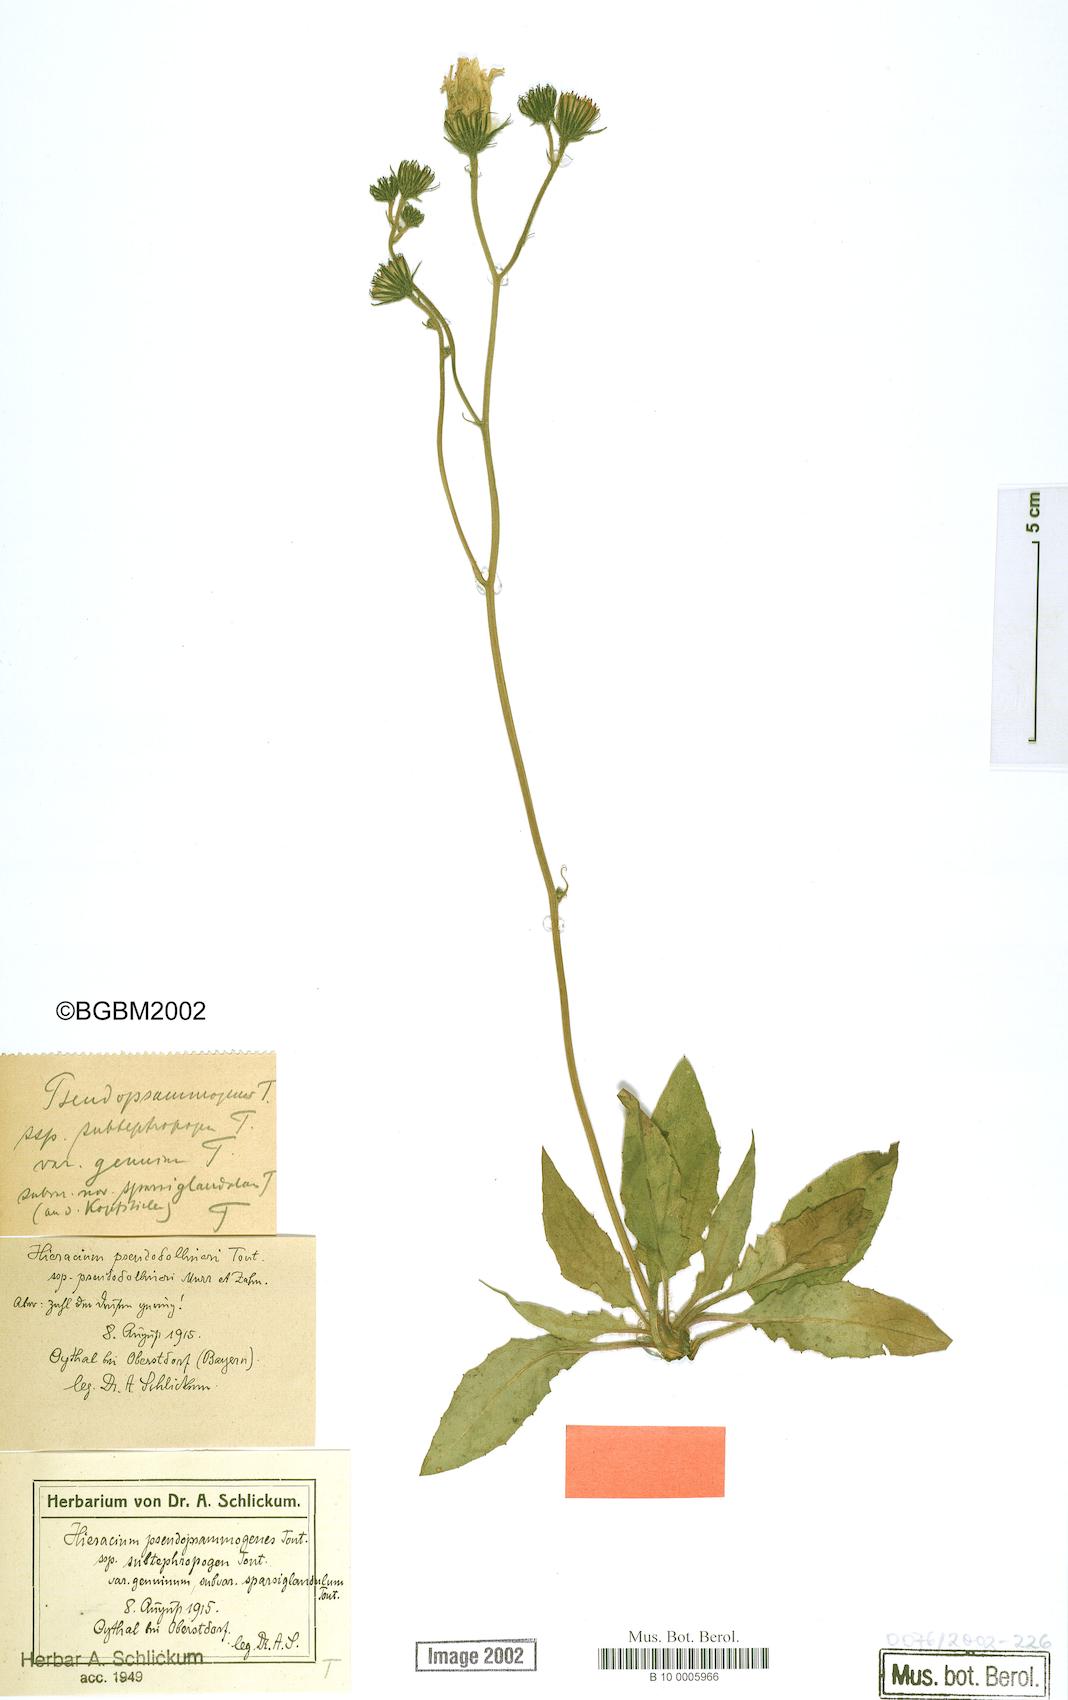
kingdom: Plantae
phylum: Tracheophyta
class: Magnoliopsida
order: Asterales
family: Asteraceae
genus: Hieracium
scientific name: Hieracium bifidum
